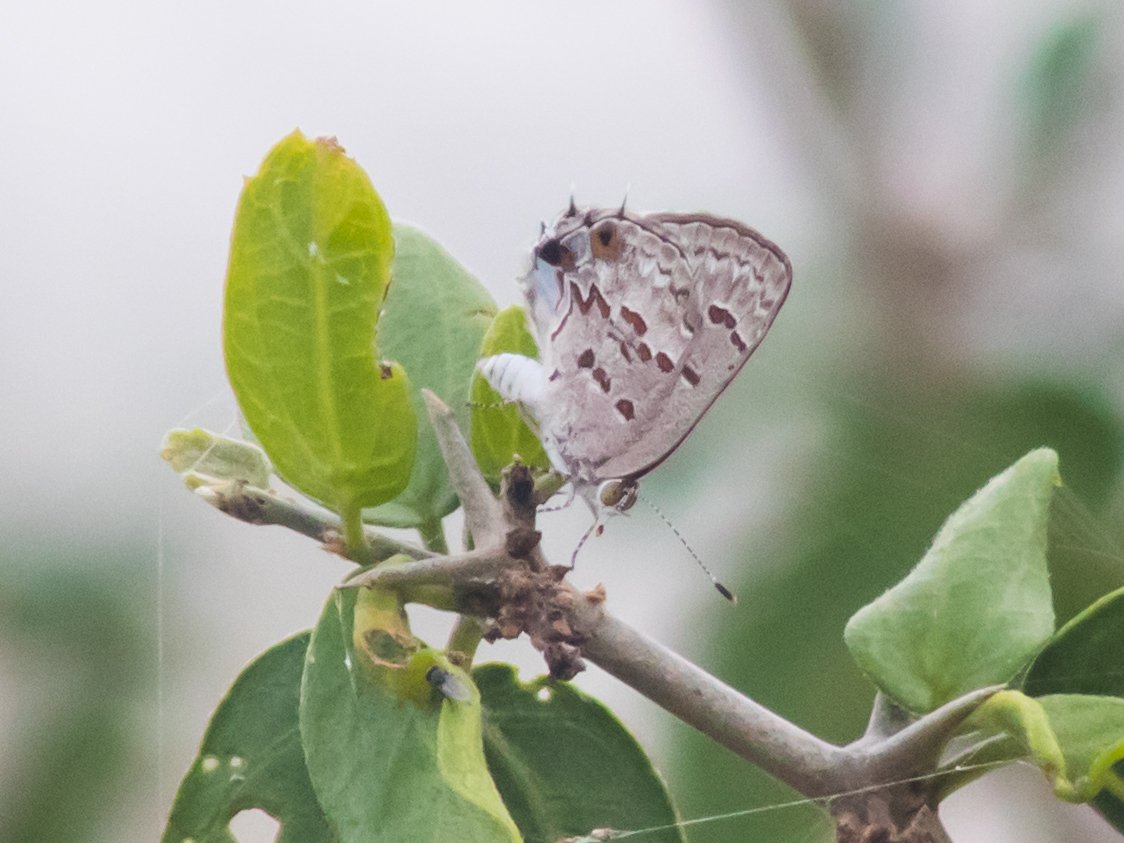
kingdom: Animalia
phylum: Arthropoda
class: Insecta
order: Lepidoptera
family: Lycaenidae
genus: Ministrymon
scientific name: Ministrymon clytie
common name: Clytie Ministreak
